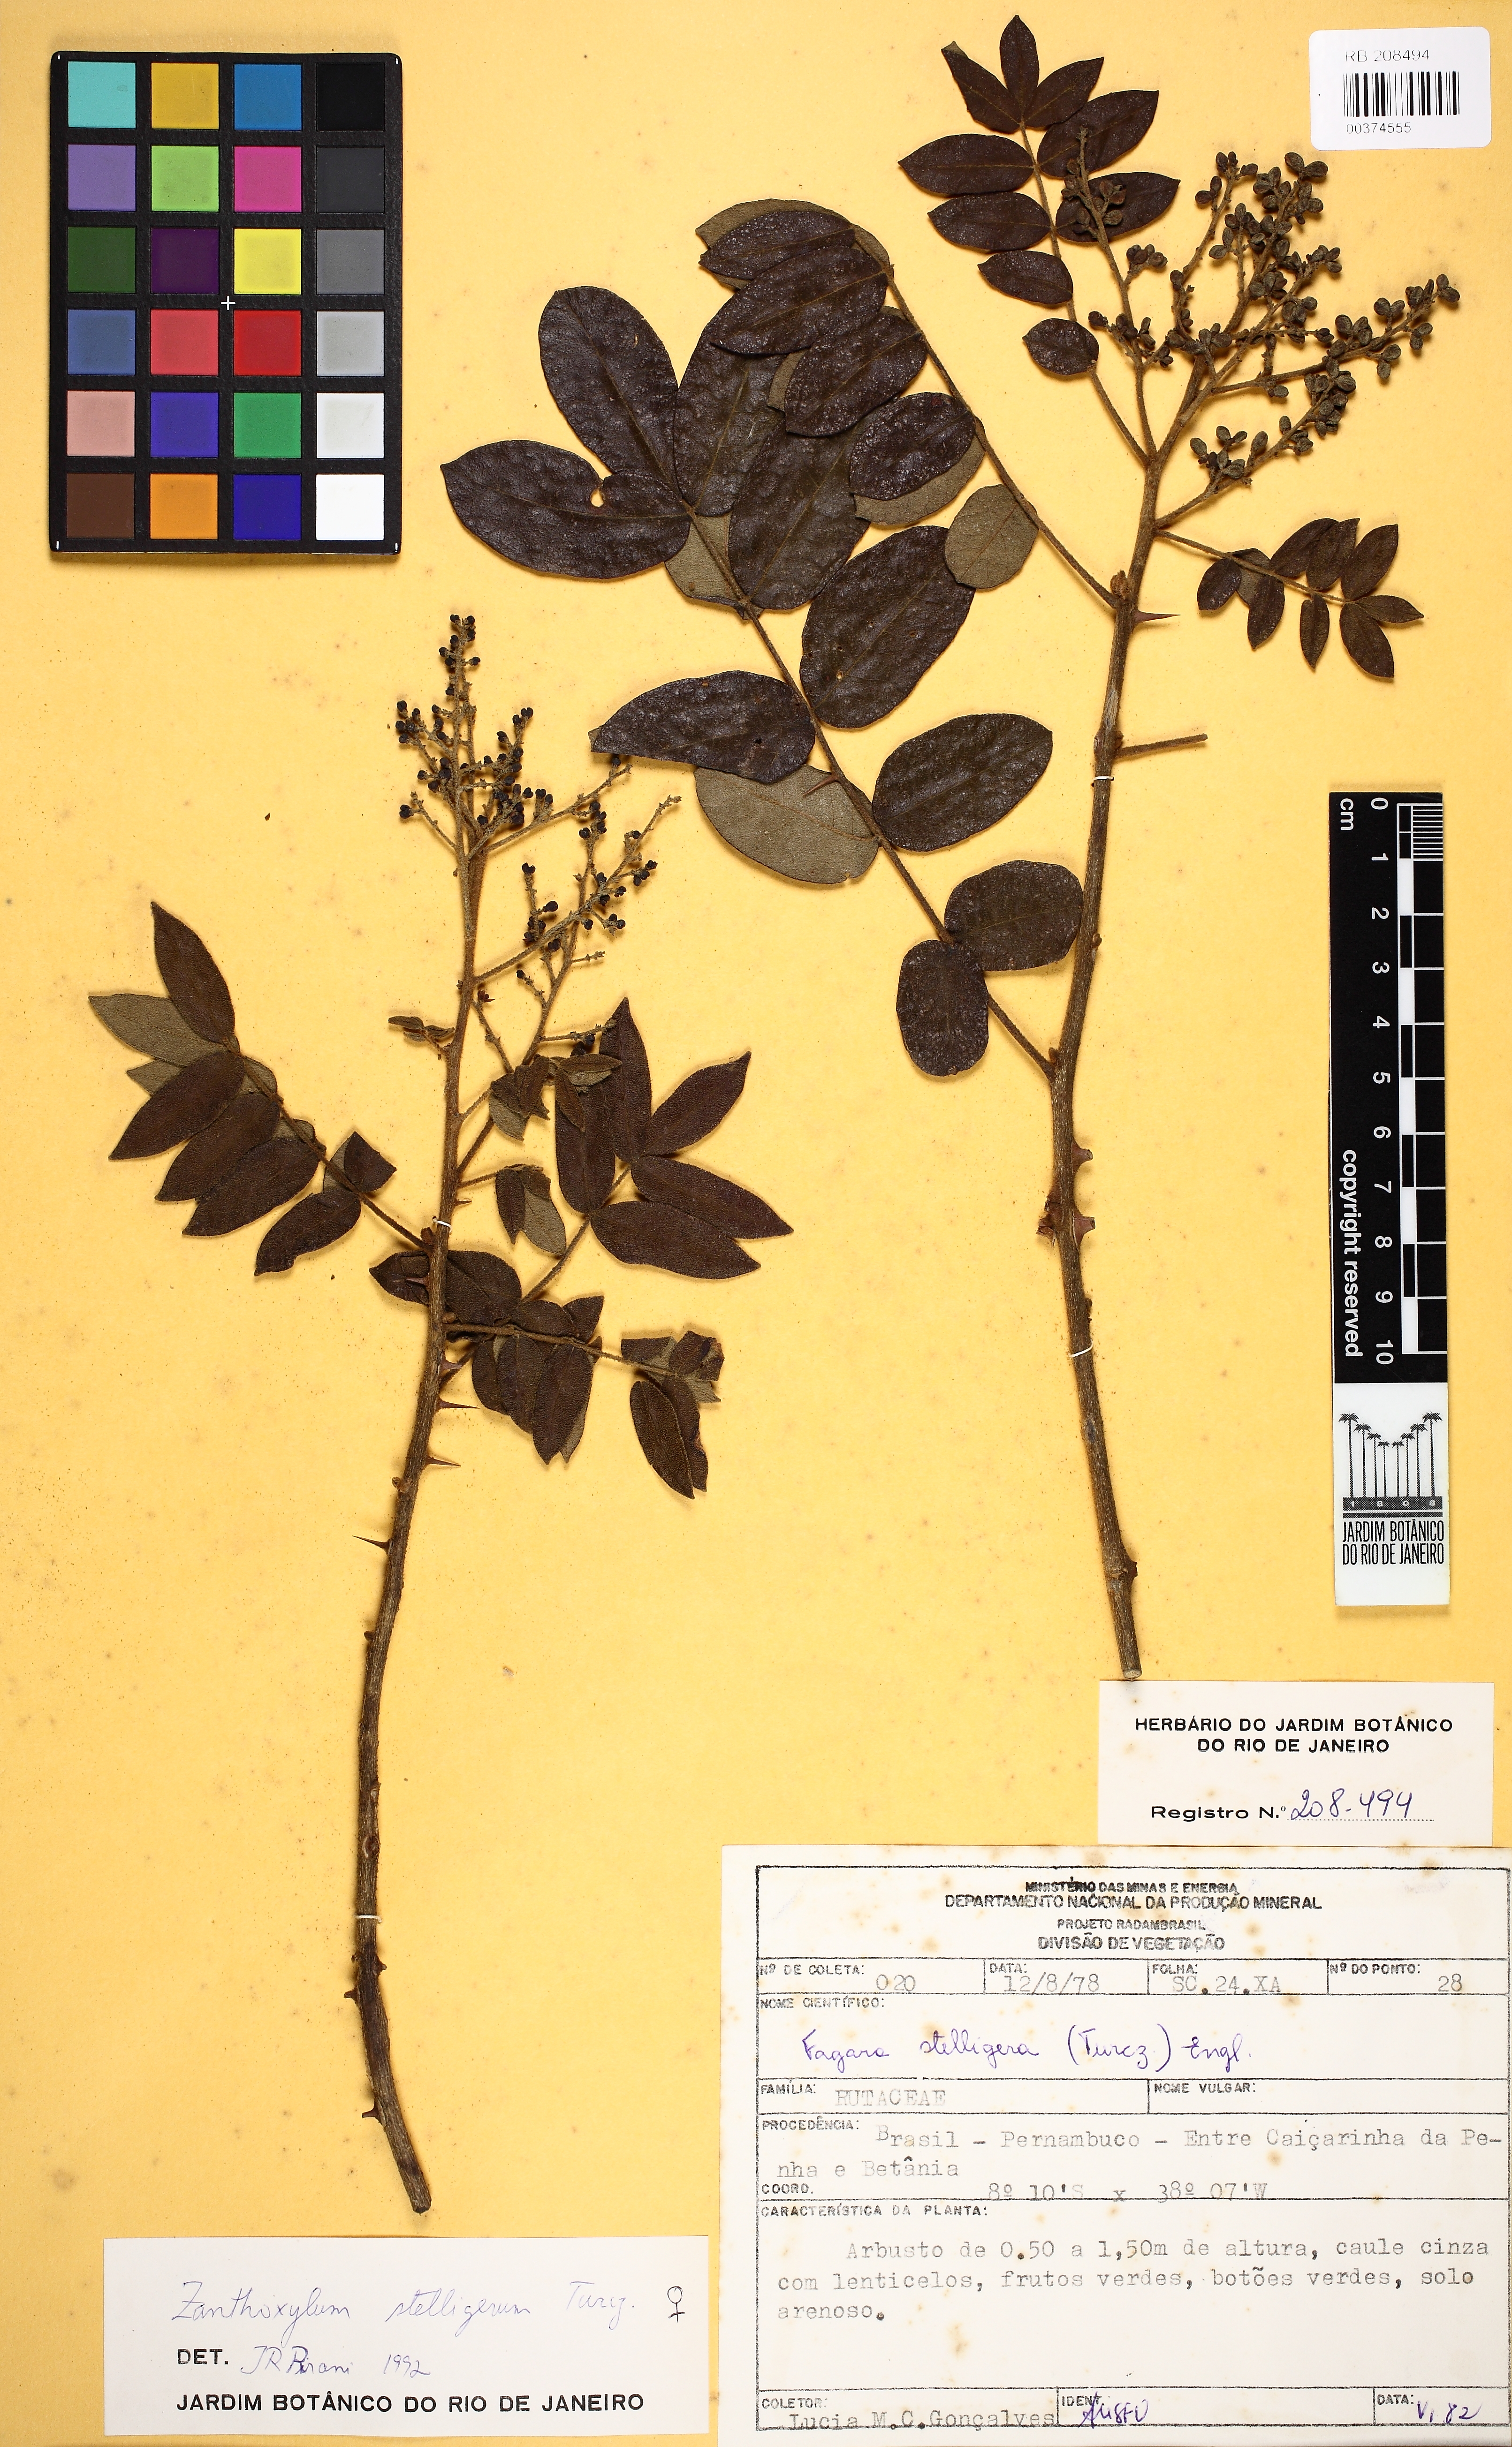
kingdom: Plantae
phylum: Tracheophyta
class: Magnoliopsida
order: Sapindales
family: Rutaceae
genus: Zanthoxylum
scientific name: Zanthoxylum stelligerum
